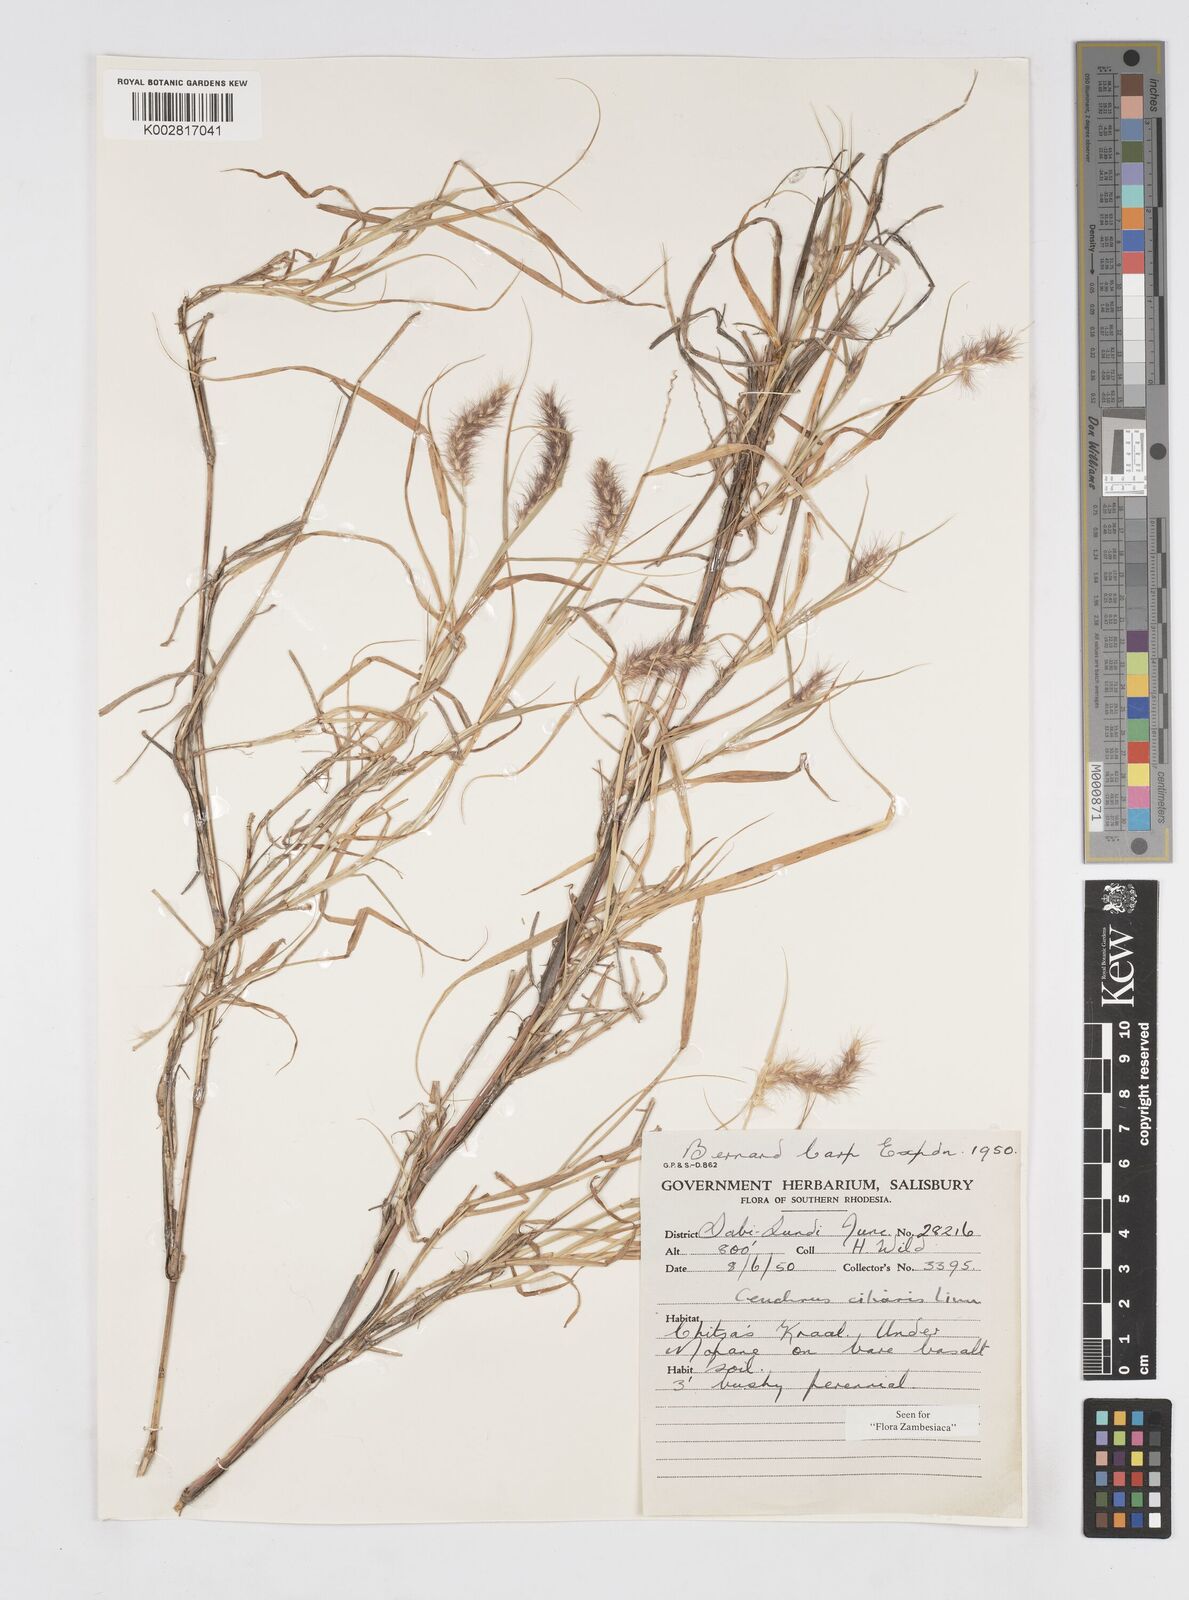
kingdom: Plantae
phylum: Tracheophyta
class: Liliopsida
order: Poales
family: Poaceae
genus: Cenchrus
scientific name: Cenchrus ciliaris
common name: Buffelgrass
